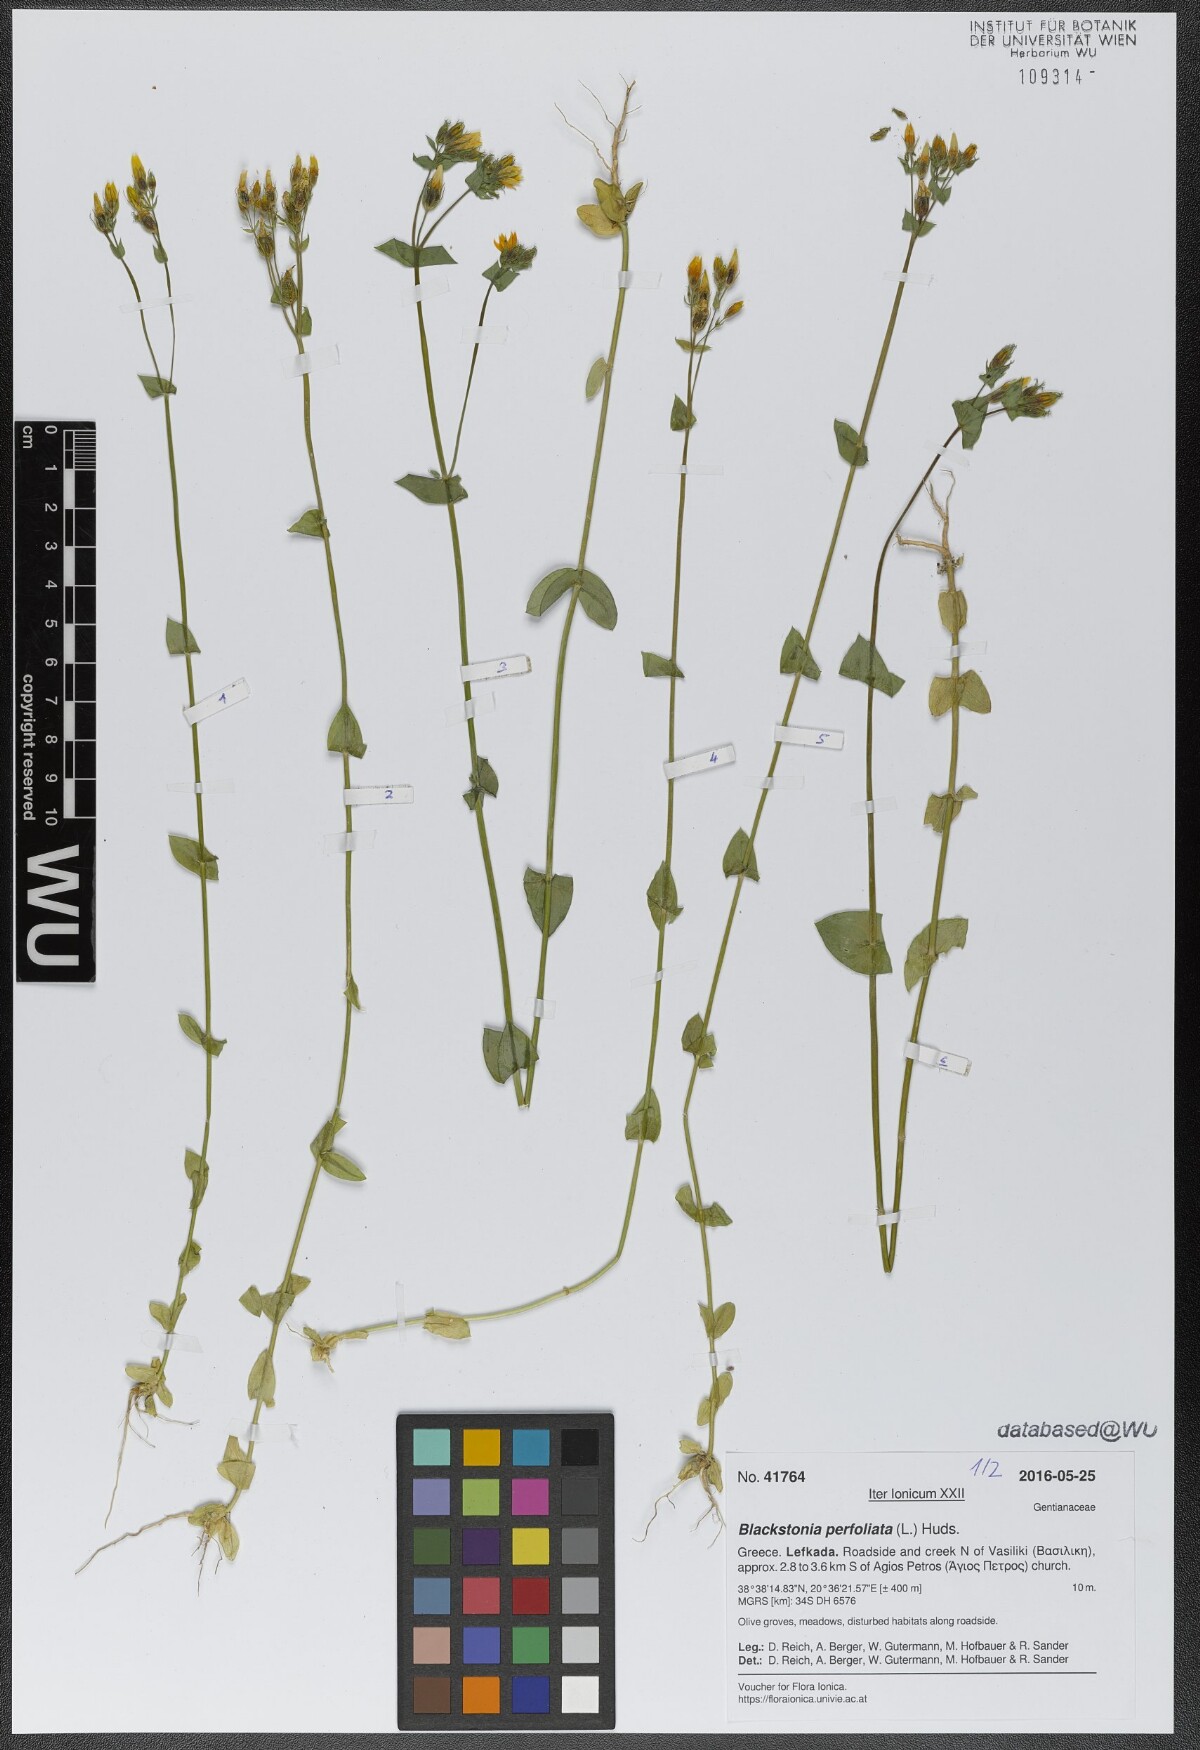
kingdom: Plantae
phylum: Tracheophyta
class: Magnoliopsida
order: Gentianales
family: Gentianaceae
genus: Blackstonia
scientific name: Blackstonia perfoliata
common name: Yellow-wort
